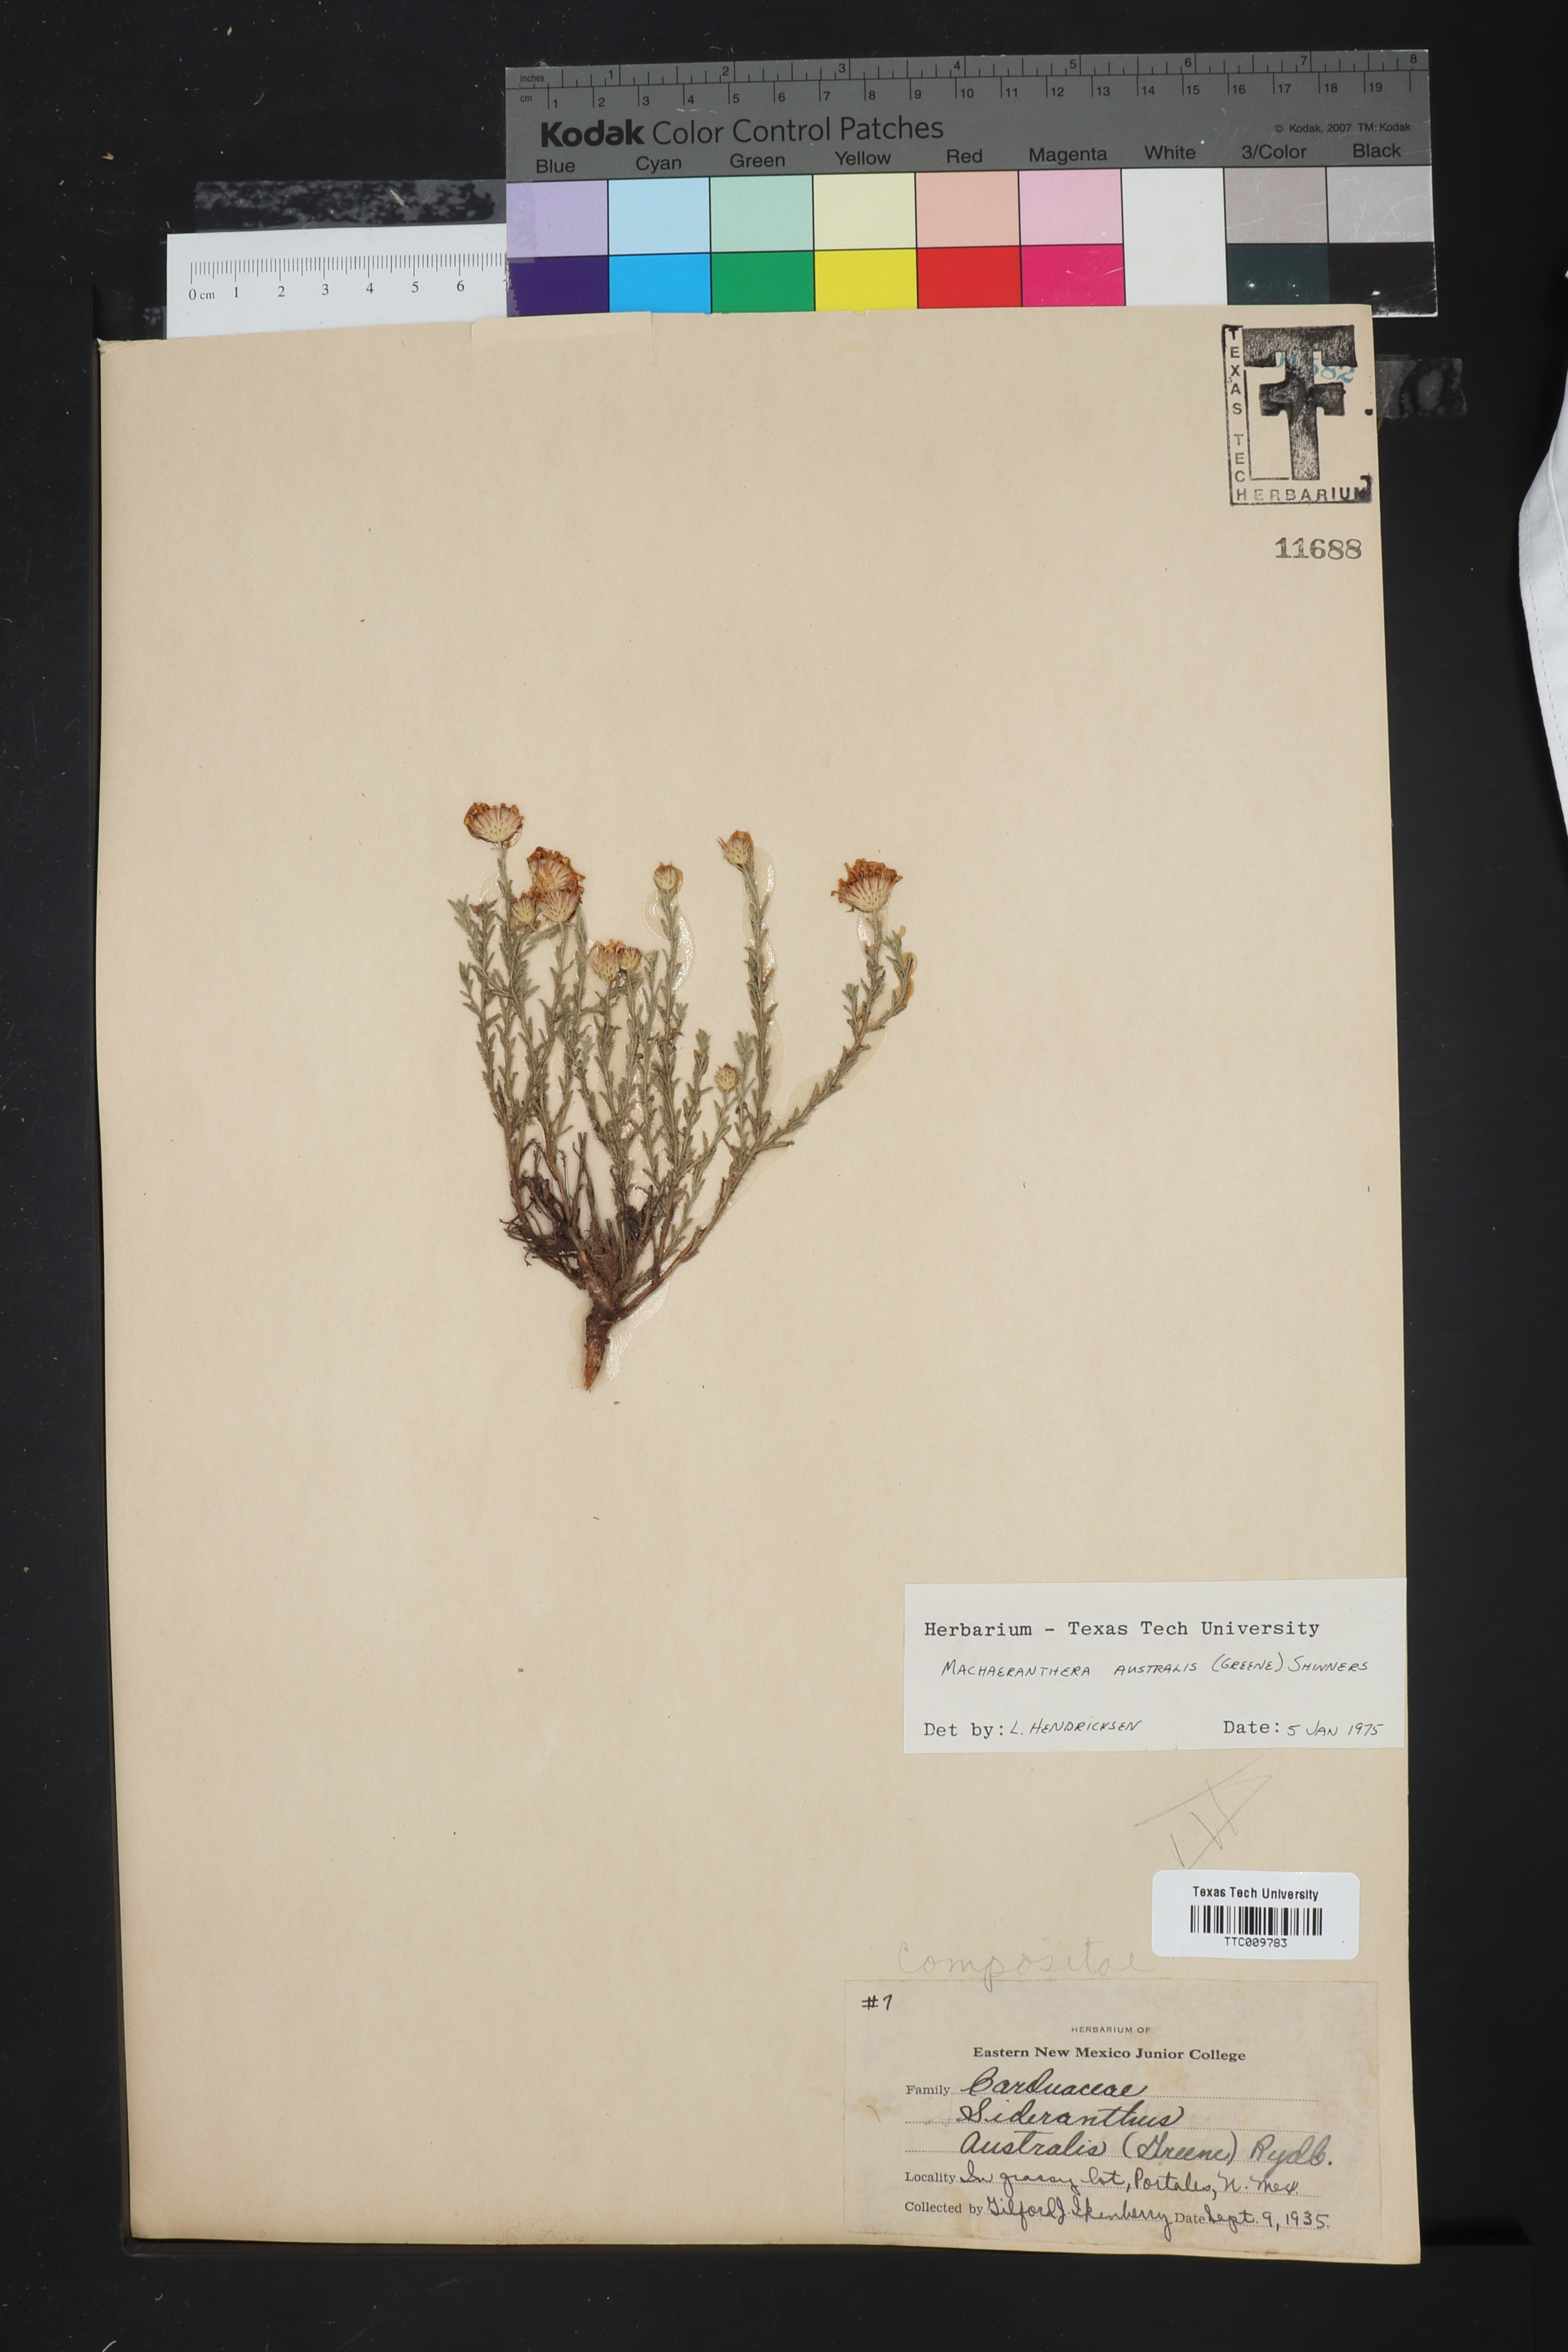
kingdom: Plantae
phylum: Tracheophyta
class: Magnoliopsida
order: Asterales
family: Asteraceae
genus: Xanthisma
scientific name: Xanthisma spinulosum
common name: Spiny goldenweed
